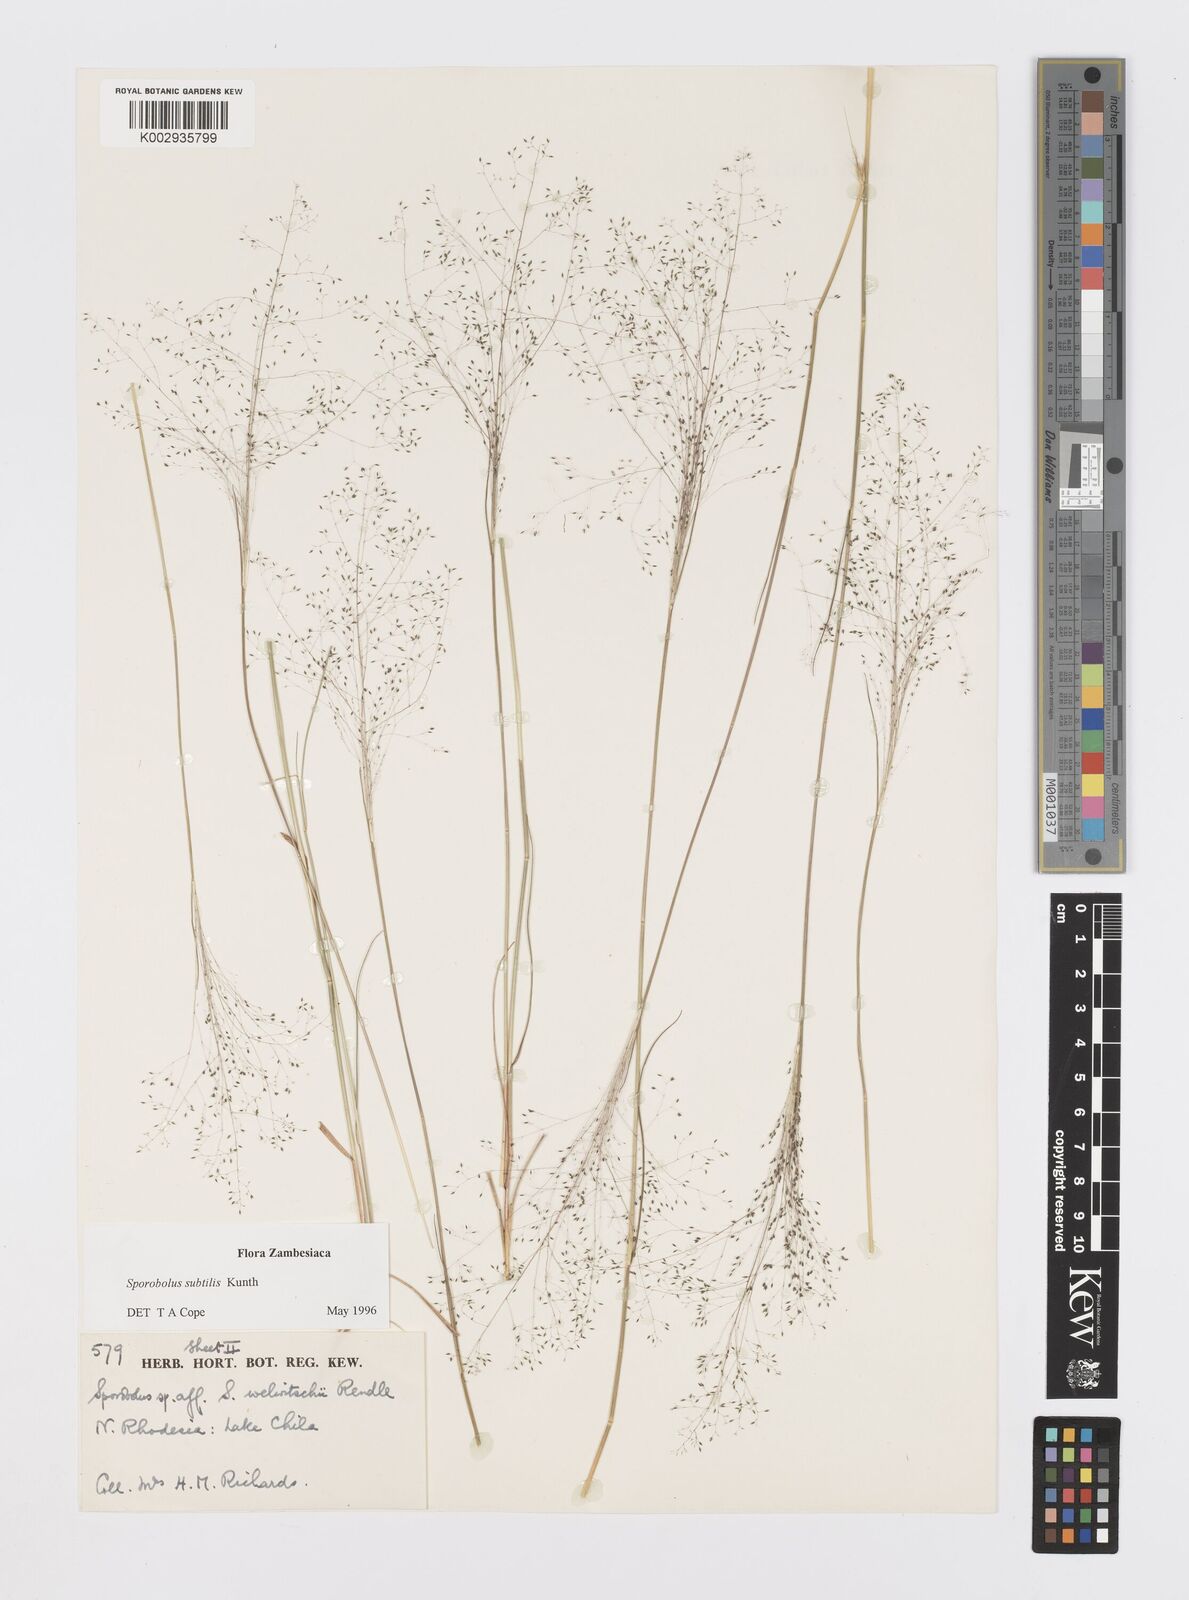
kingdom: Plantae
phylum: Tracheophyta
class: Liliopsida
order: Poales
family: Poaceae
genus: Sporobolus
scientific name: Sporobolus subtilis
